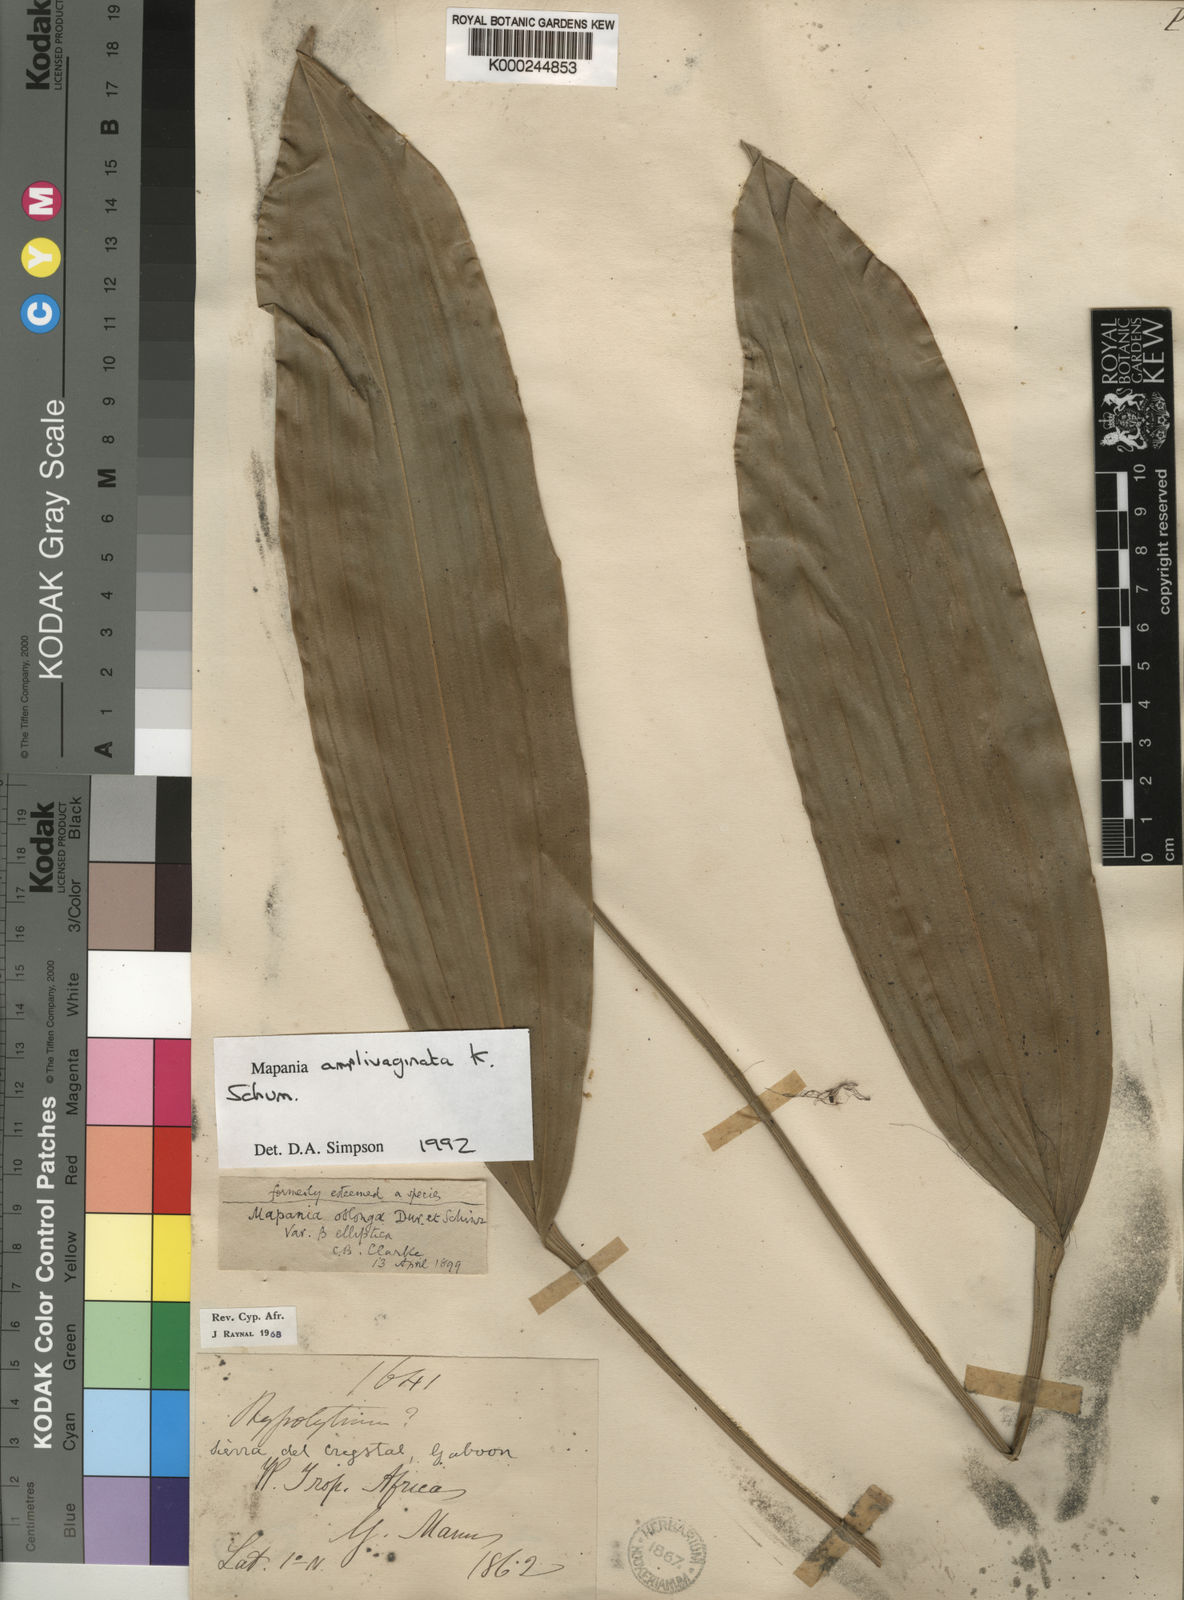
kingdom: Plantae
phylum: Tracheophyta
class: Liliopsida
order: Poales
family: Cyperaceae
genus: Mapania
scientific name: Mapania amplivaginata
